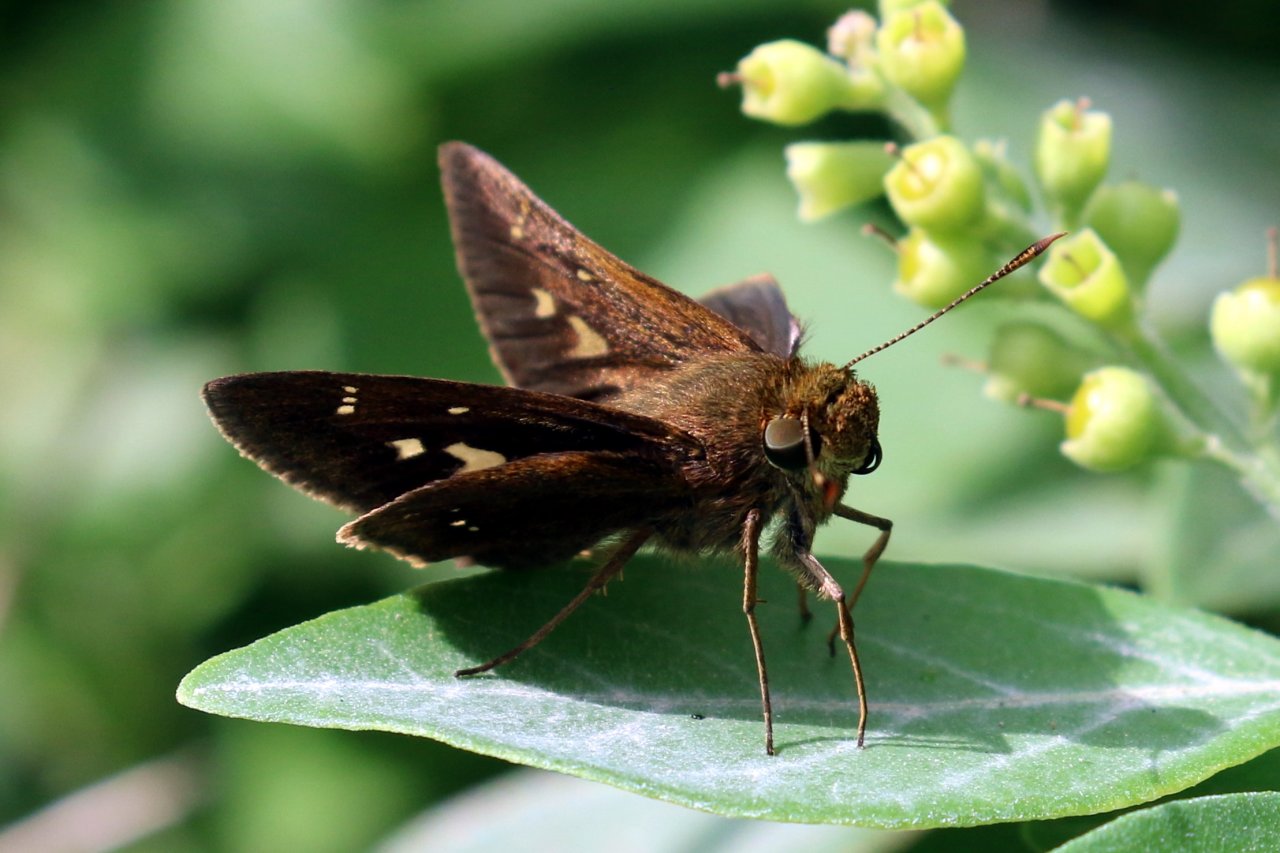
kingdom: Animalia
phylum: Arthropoda
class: Insecta
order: Lepidoptera
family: Hesperiidae
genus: Decinea
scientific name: Decinea percosius
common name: Double-dotted Skipper
